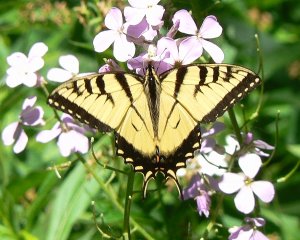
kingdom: Animalia
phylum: Arthropoda
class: Insecta
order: Lepidoptera
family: Papilionidae
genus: Pterourus
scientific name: Pterourus glaucus
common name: Eastern Tiger Swallowtail
